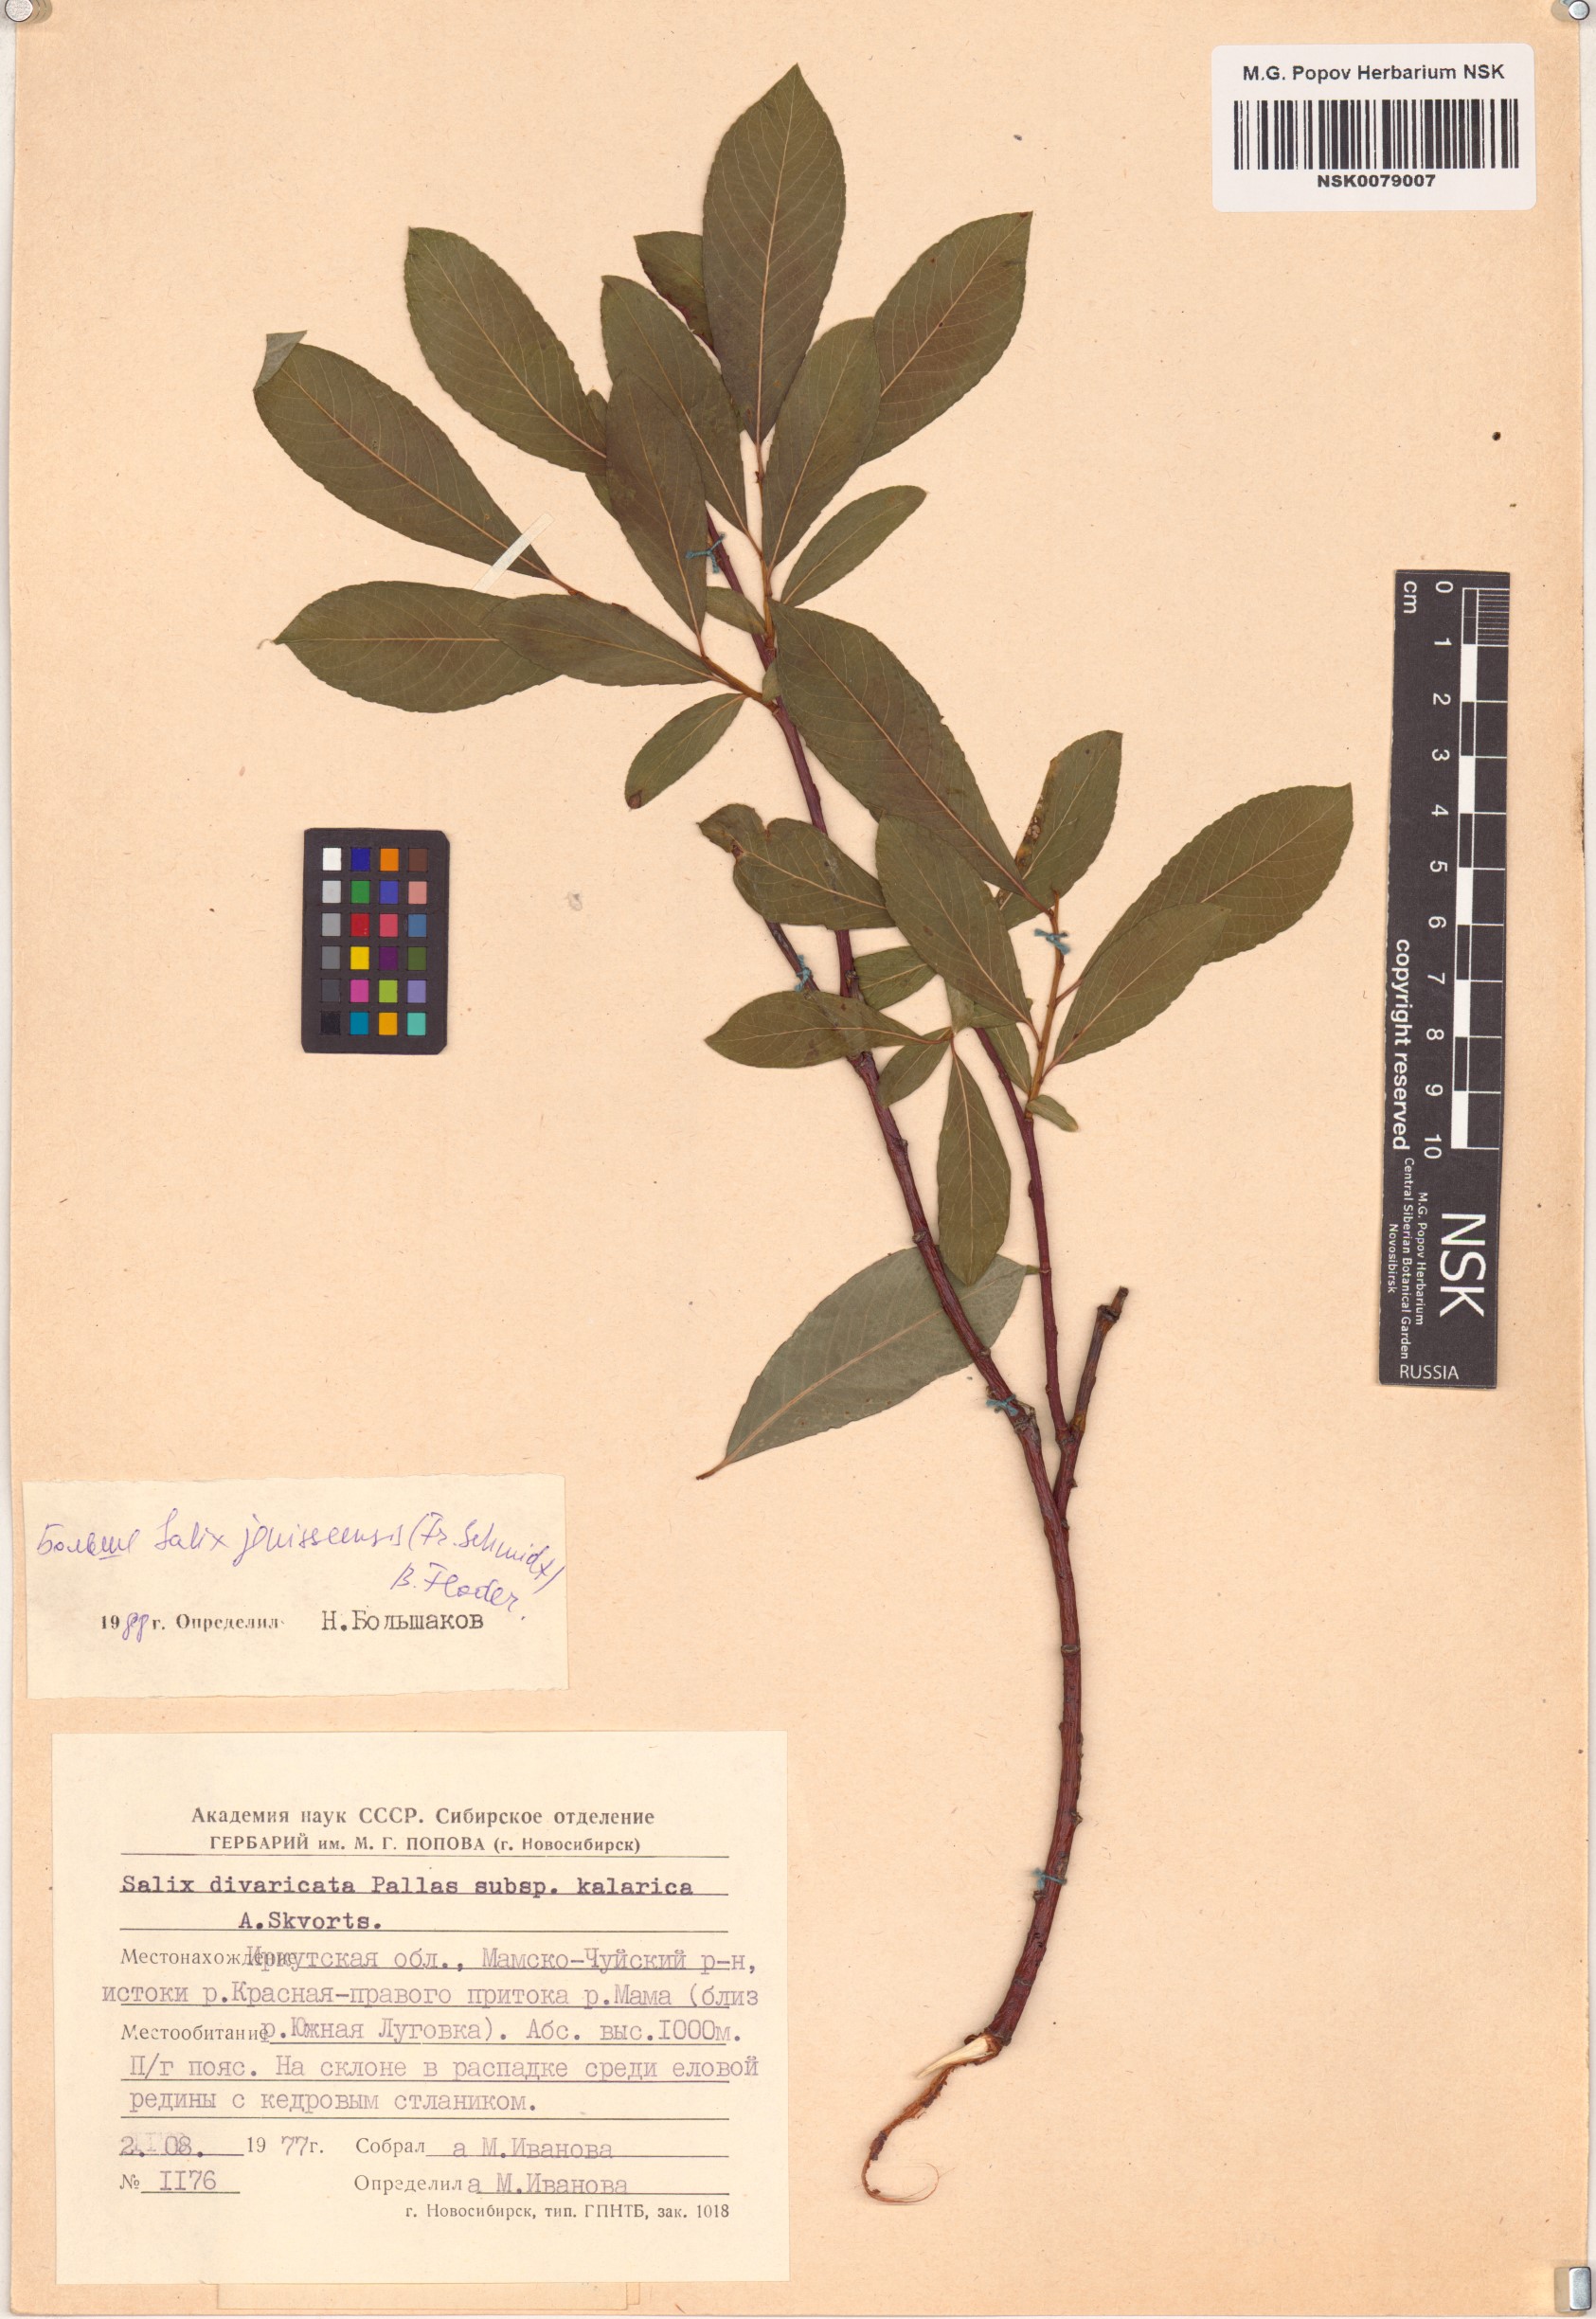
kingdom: Plantae
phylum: Tracheophyta
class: Magnoliopsida
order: Malpighiales
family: Salicaceae
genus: Salix
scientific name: Salix jenisseensis
